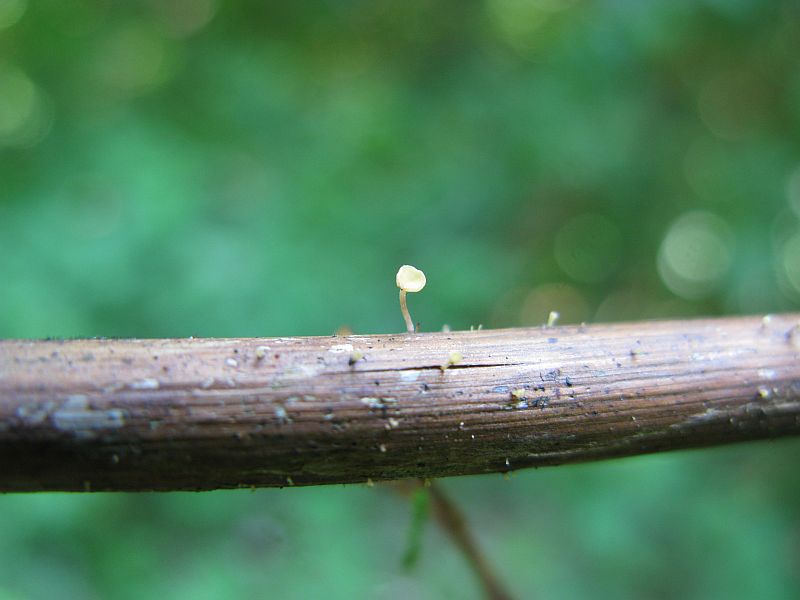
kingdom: Fungi
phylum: Ascomycota
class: Leotiomycetes
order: Helotiales
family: Helotiaceae
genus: Hymenoscyphus
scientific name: Hymenoscyphus calyculus
